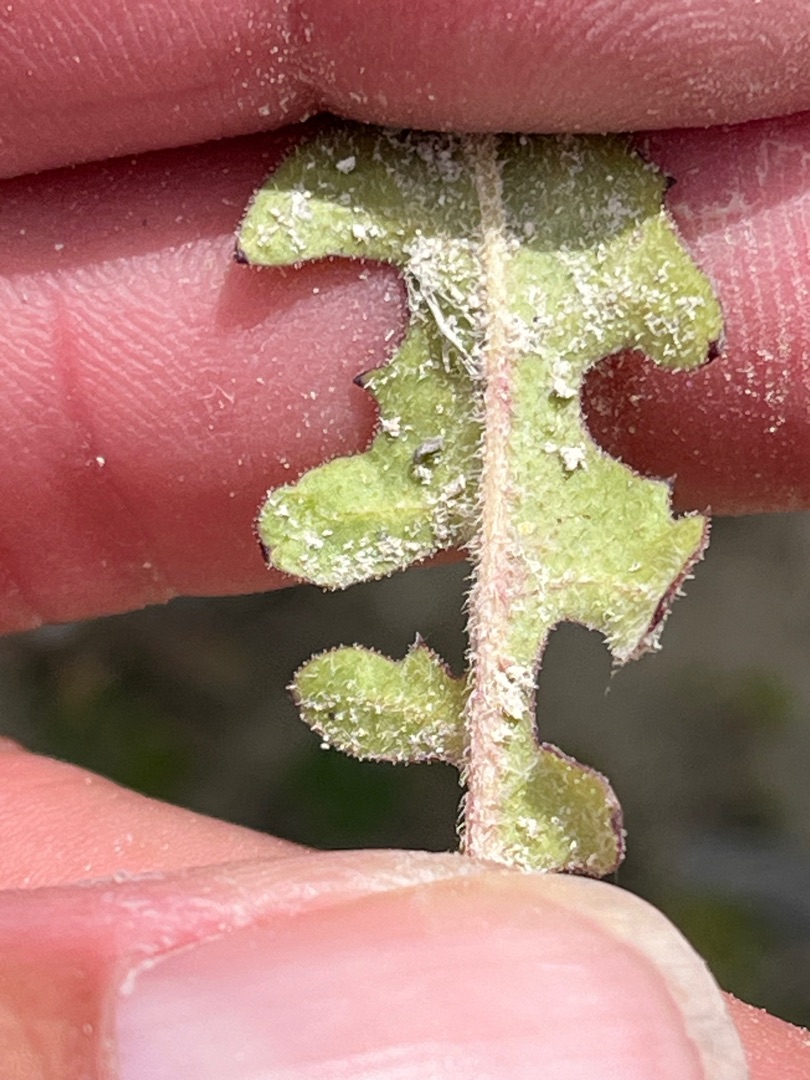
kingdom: Plantae
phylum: Tracheophyta
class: Magnoliopsida
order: Asterales
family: Asteraceae
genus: Crepis
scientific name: Crepis biennis
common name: Toårig høgeskæg
